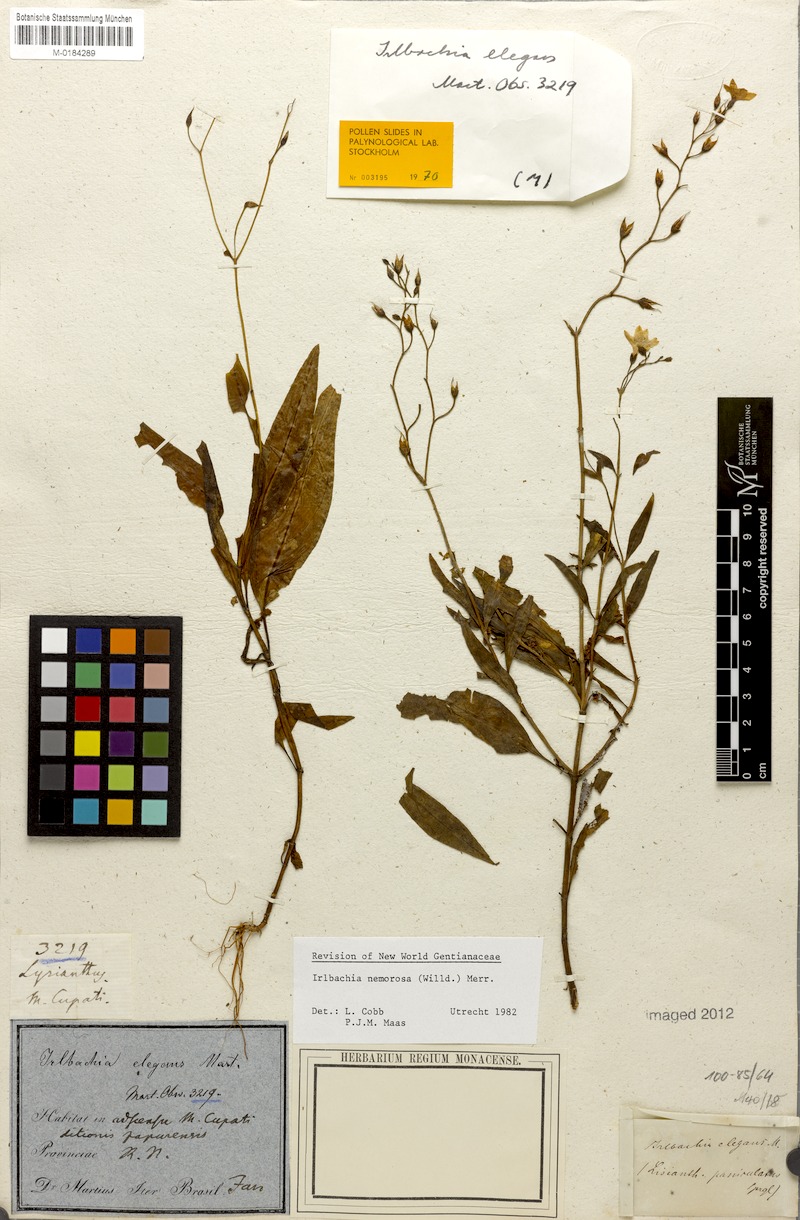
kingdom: Plantae
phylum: Tracheophyta
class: Magnoliopsida
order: Gentianales
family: Gentianaceae
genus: Irlbachia
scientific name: Irlbachia nemorosa
